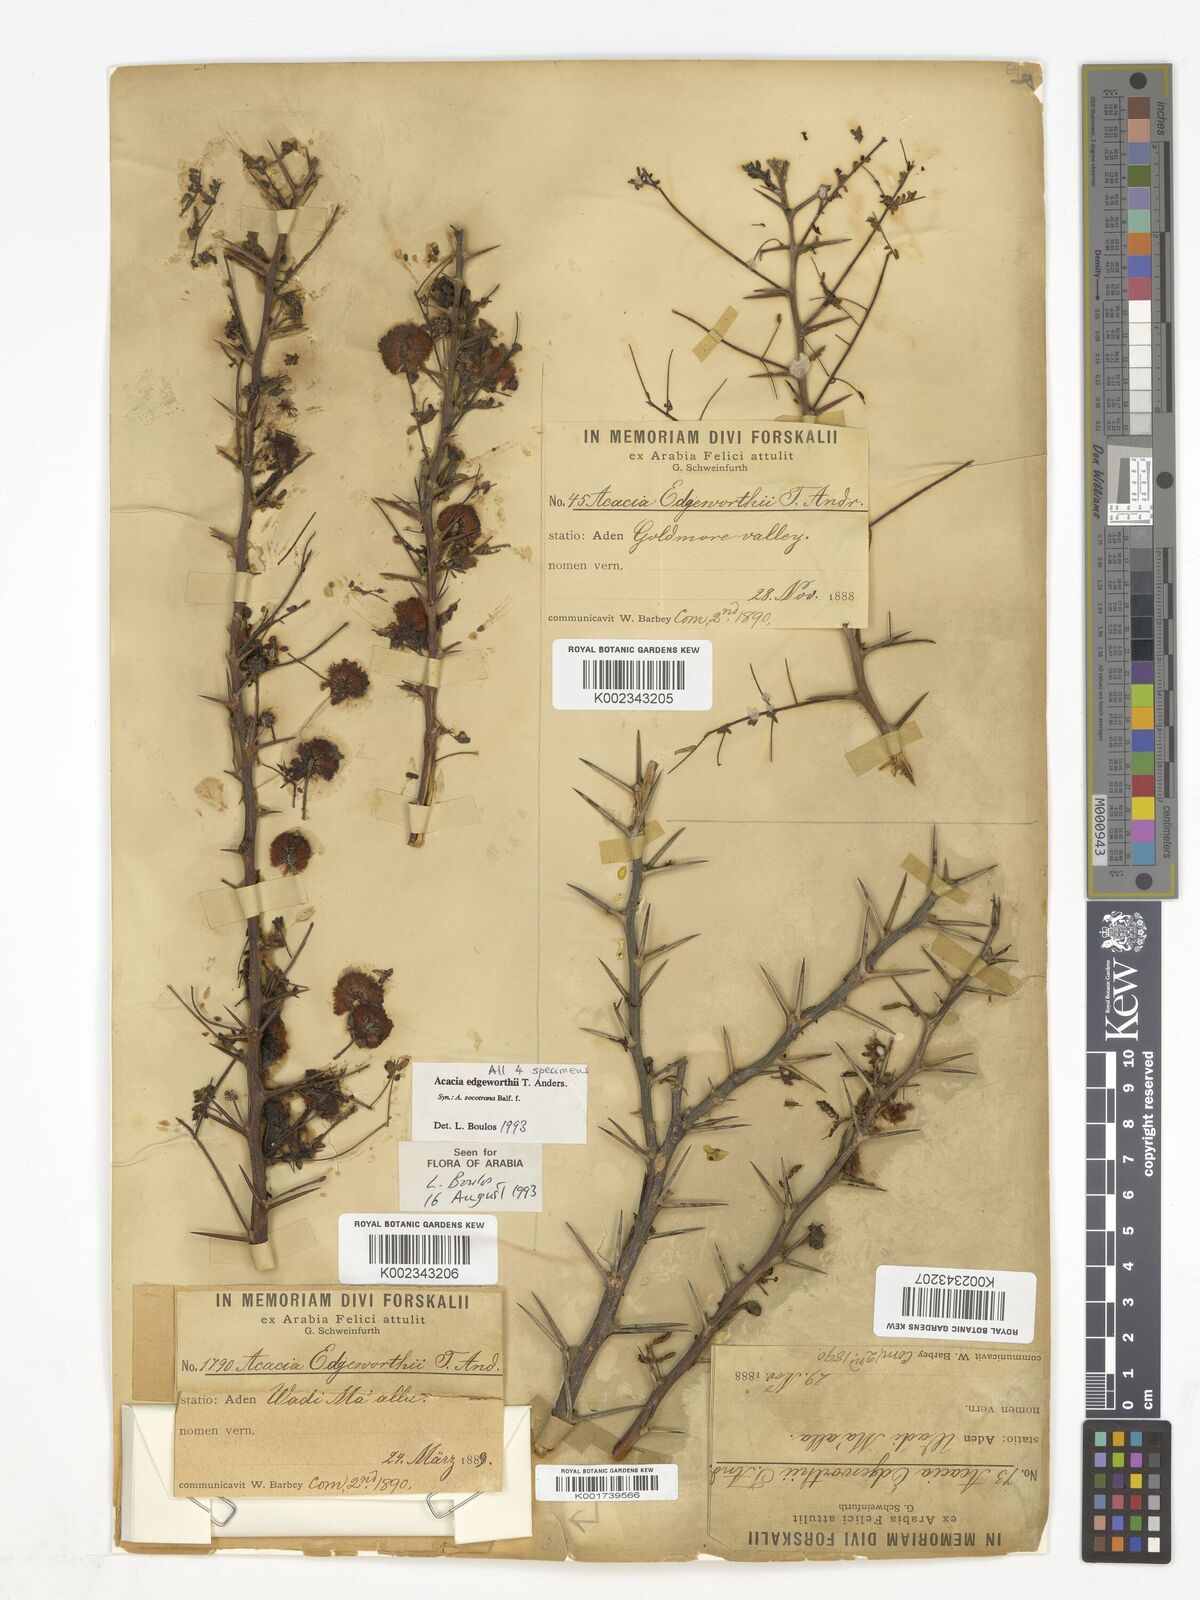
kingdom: Plantae
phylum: Tracheophyta
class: Magnoliopsida
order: Fabales
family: Fabaceae
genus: Vachellia
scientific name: Vachellia edgeworthii
